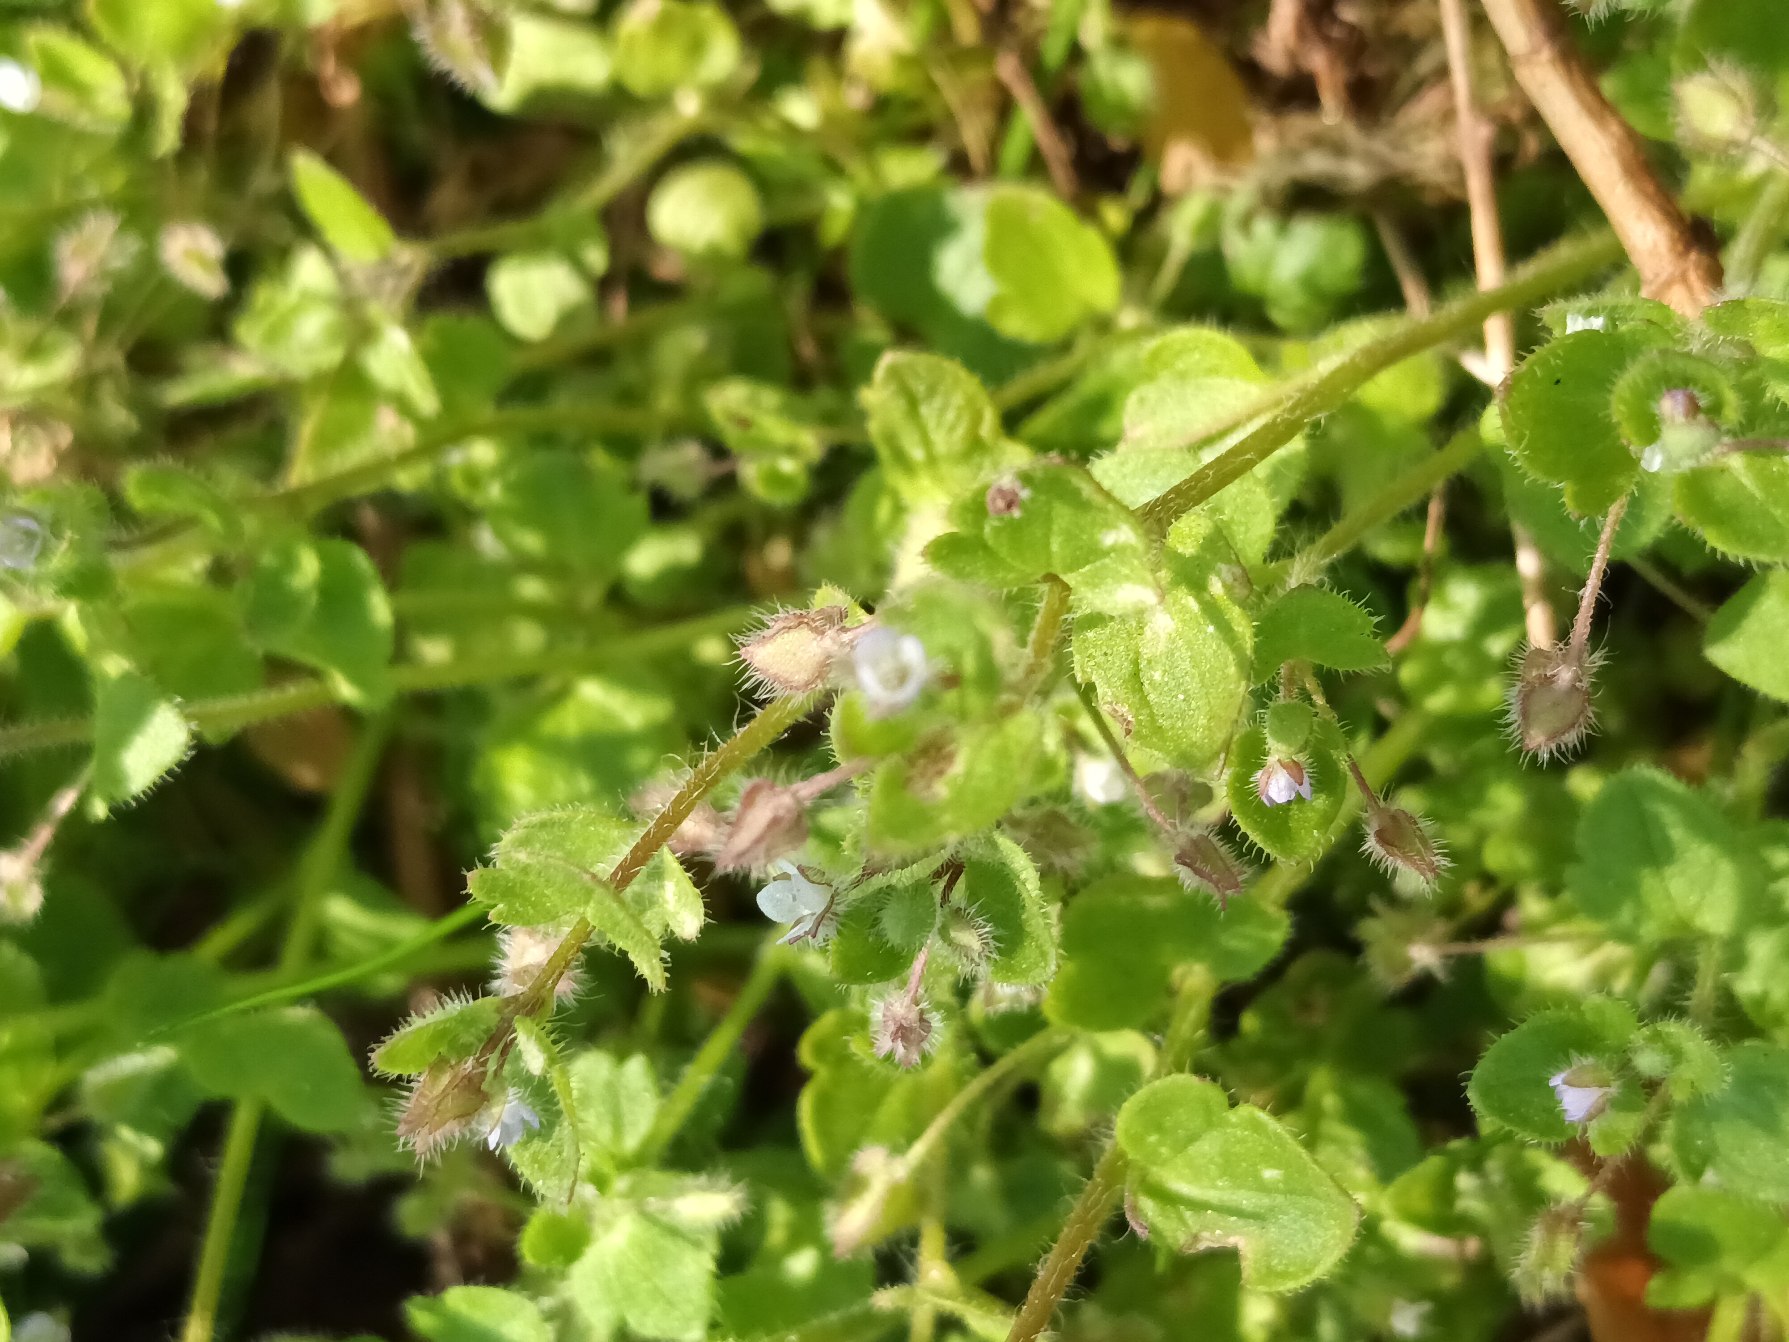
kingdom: Plantae
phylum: Tracheophyta
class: Magnoliopsida
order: Lamiales
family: Plantaginaceae
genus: Veronica
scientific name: Veronica sublobata
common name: Krat-ærenpris
